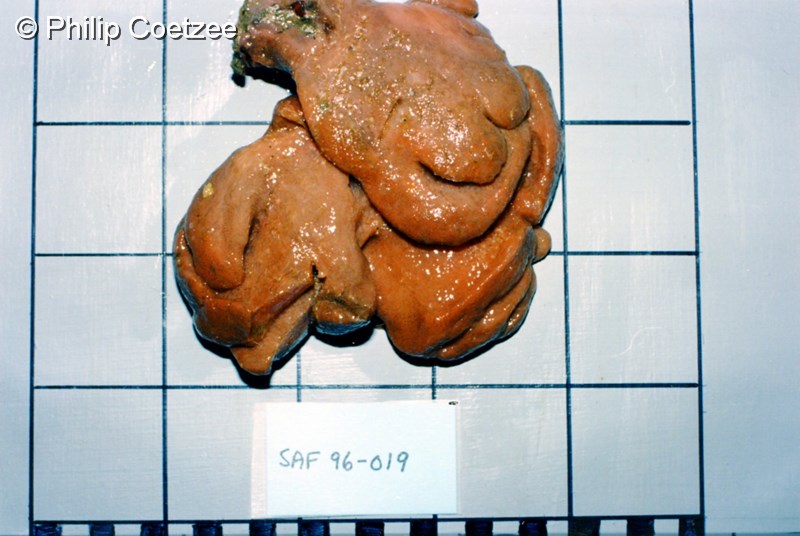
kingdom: Animalia
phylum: Chordata
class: Ascidiacea
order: Aplousobranchia
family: Polyclinidae
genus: Synoicum
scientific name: Synoicum
